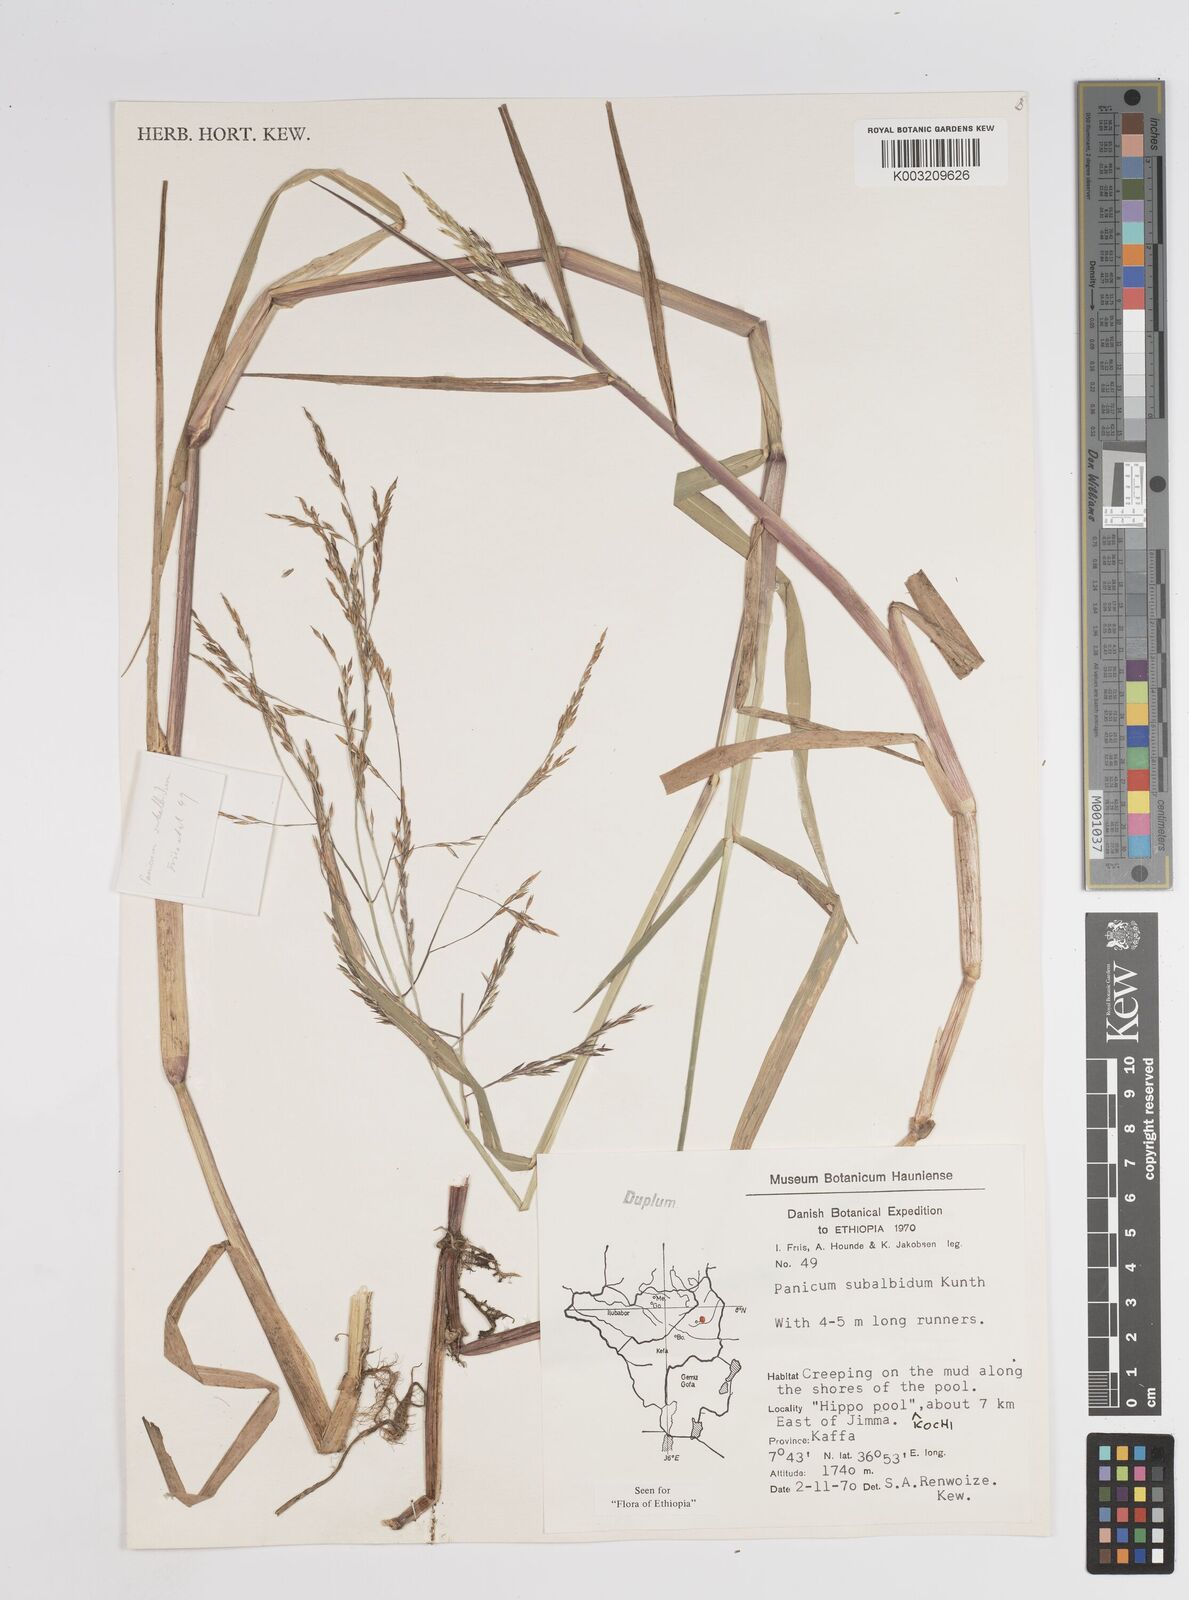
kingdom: Plantae
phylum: Tracheophyta
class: Liliopsida
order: Poales
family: Poaceae
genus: Panicum
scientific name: Panicum subalbidum
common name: Elbow buffalo grass
